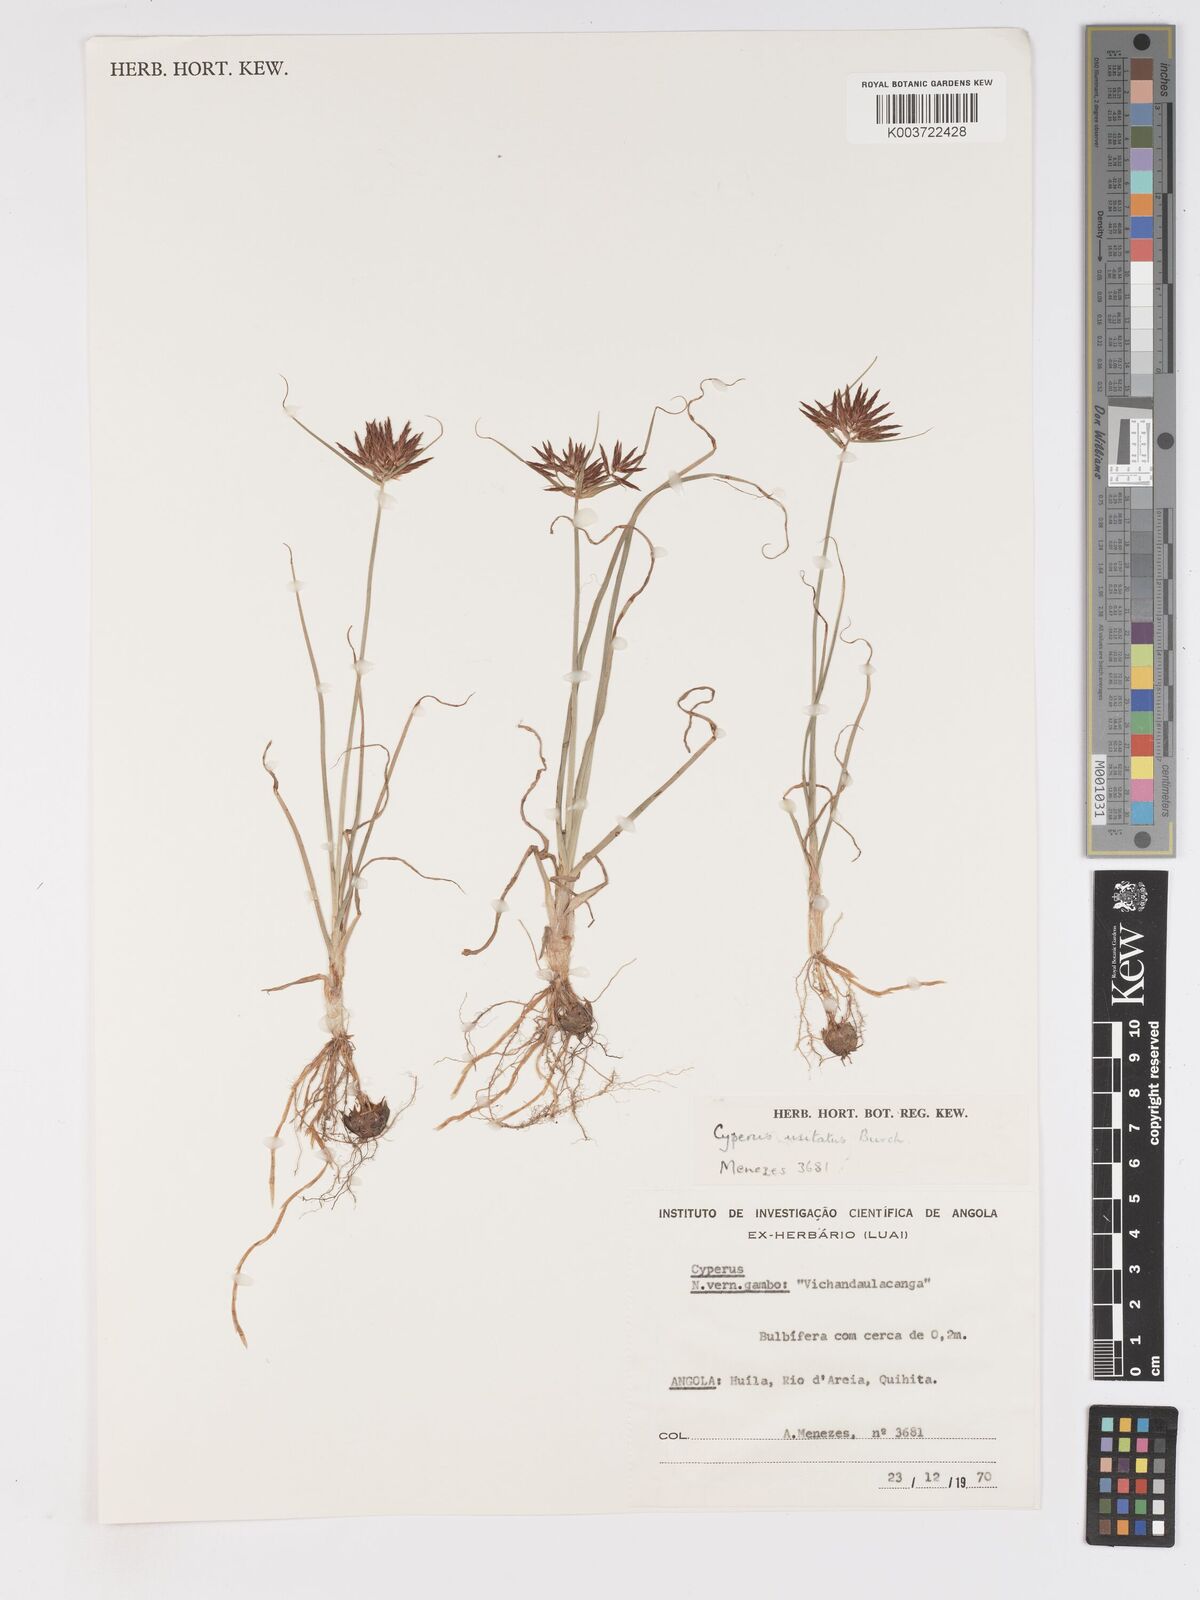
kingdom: Plantae
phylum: Tracheophyta
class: Liliopsida
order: Poales
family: Cyperaceae
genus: Cyperus
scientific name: Cyperus bulbosus
